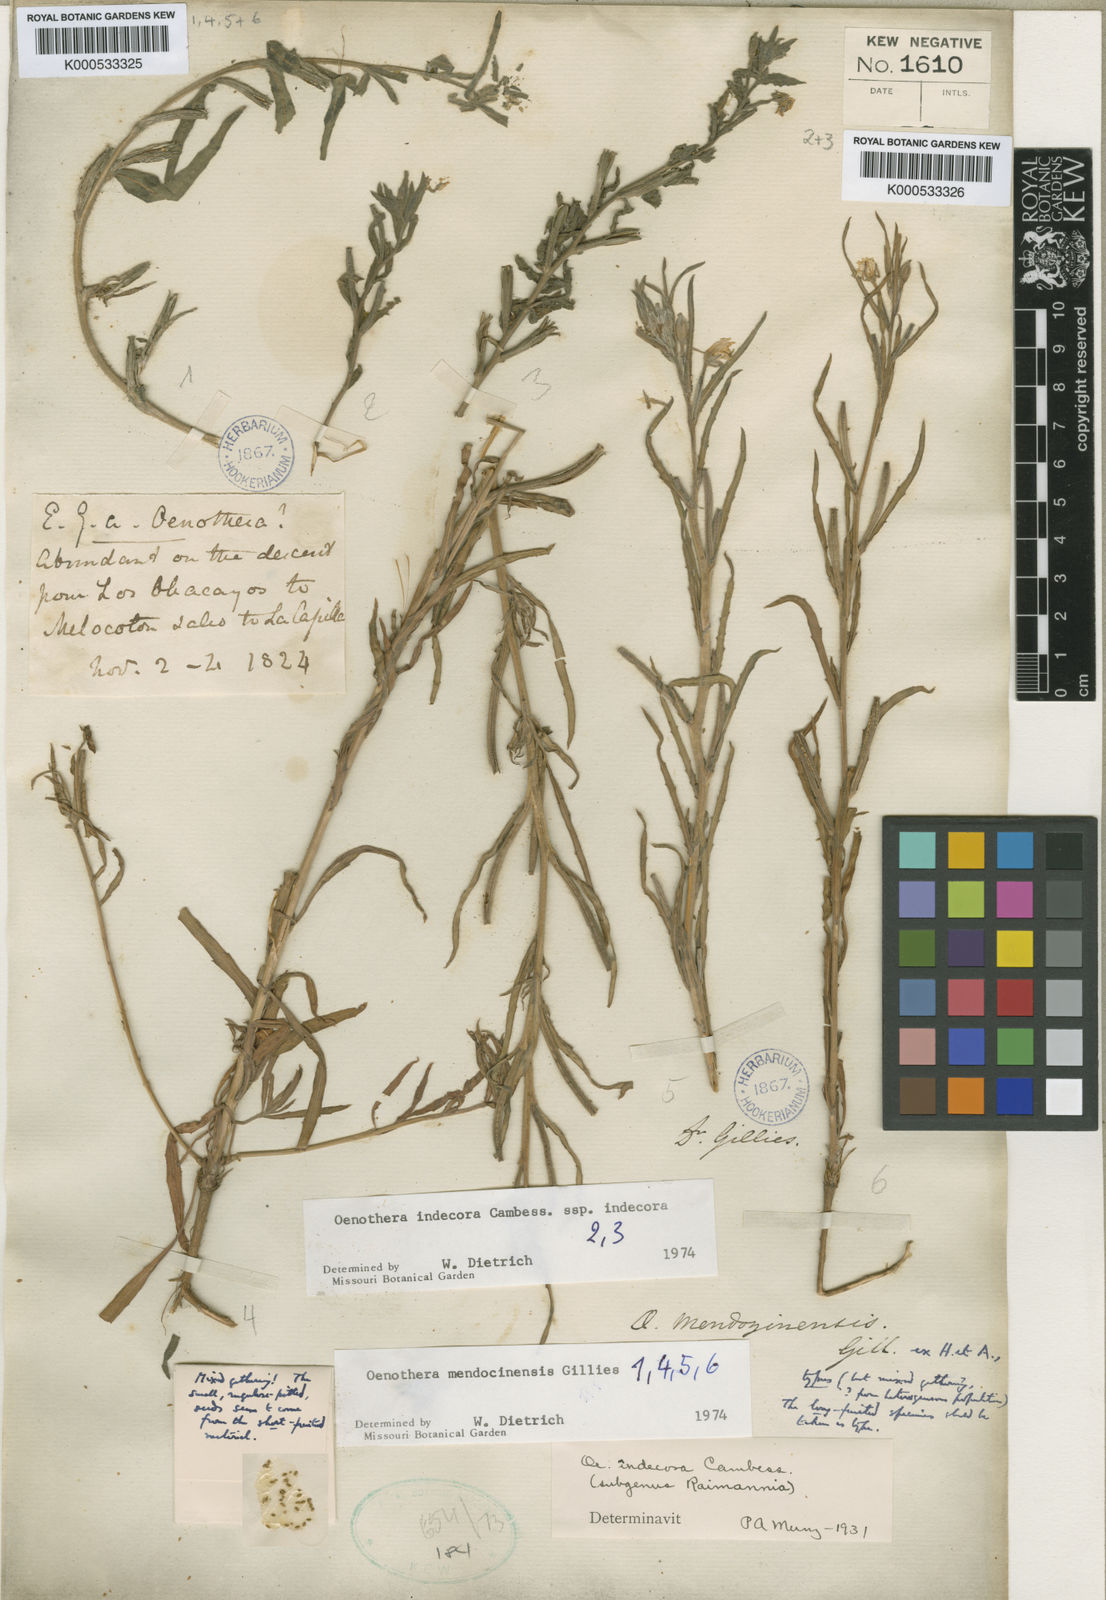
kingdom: Plantae
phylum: Tracheophyta
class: Magnoliopsida
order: Myrtales
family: Onagraceae
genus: Oenothera
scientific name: Oenothera mendocinensis
